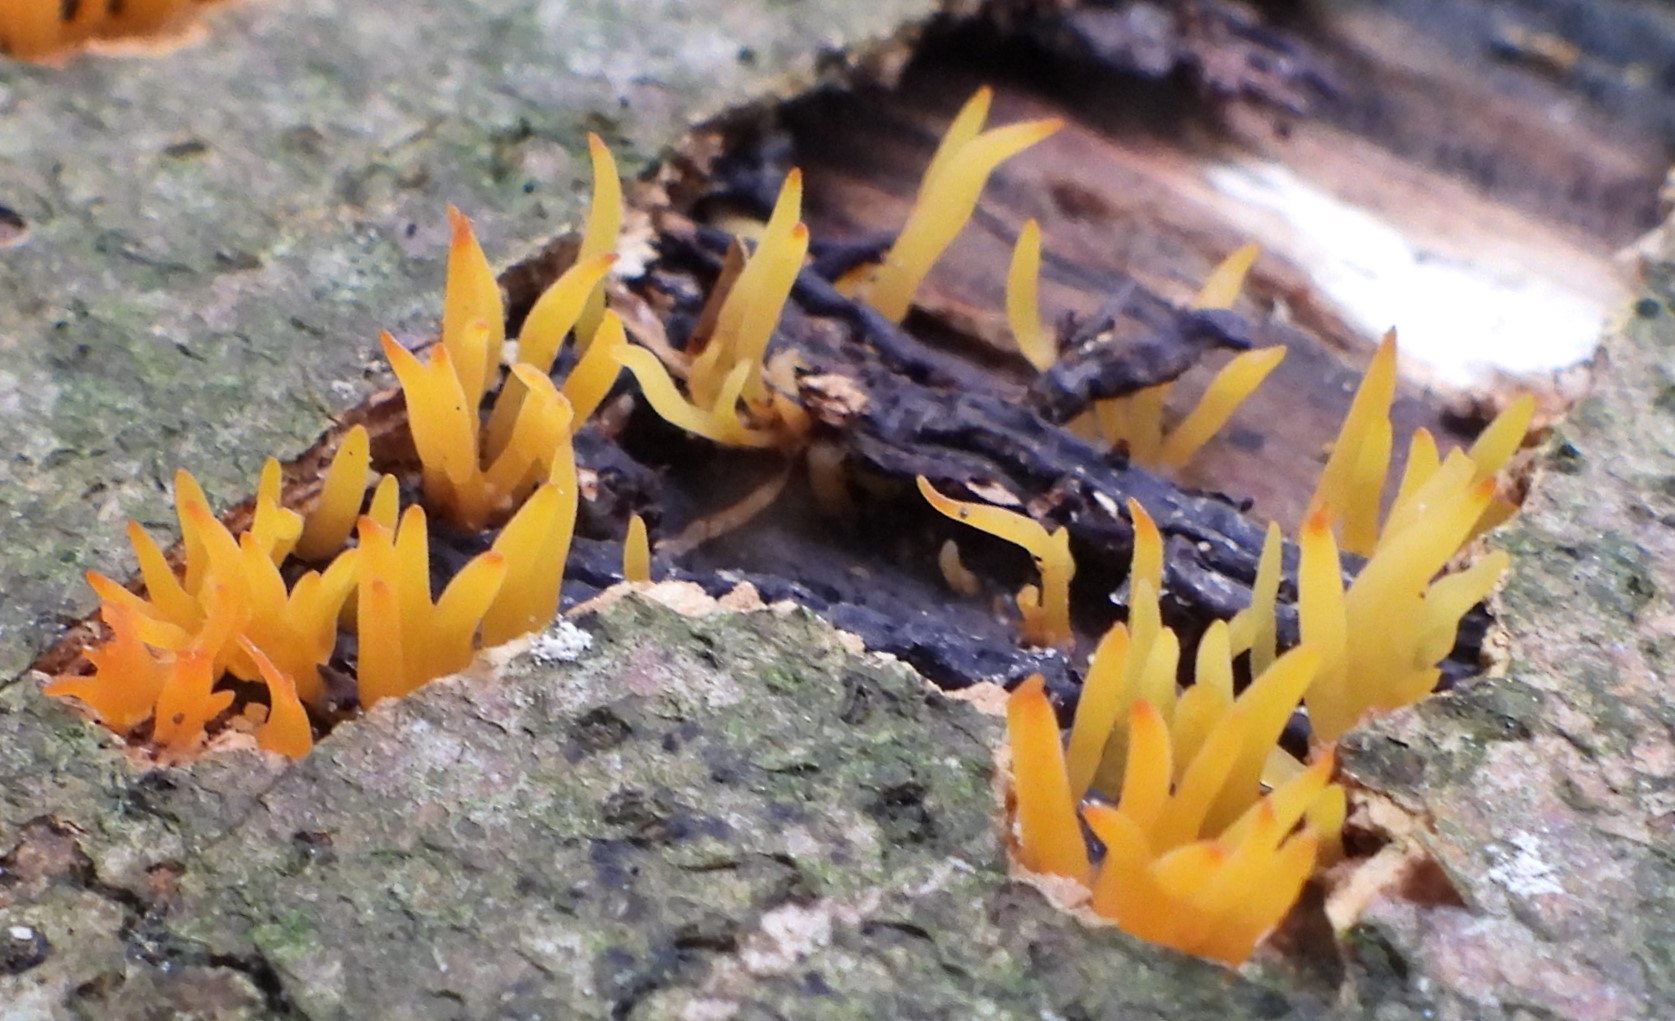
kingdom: Fungi
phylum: Basidiomycota
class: Dacrymycetes
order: Dacrymycetales
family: Dacrymycetaceae
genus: Calocera
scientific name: Calocera cornea
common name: liden guldgaffel
